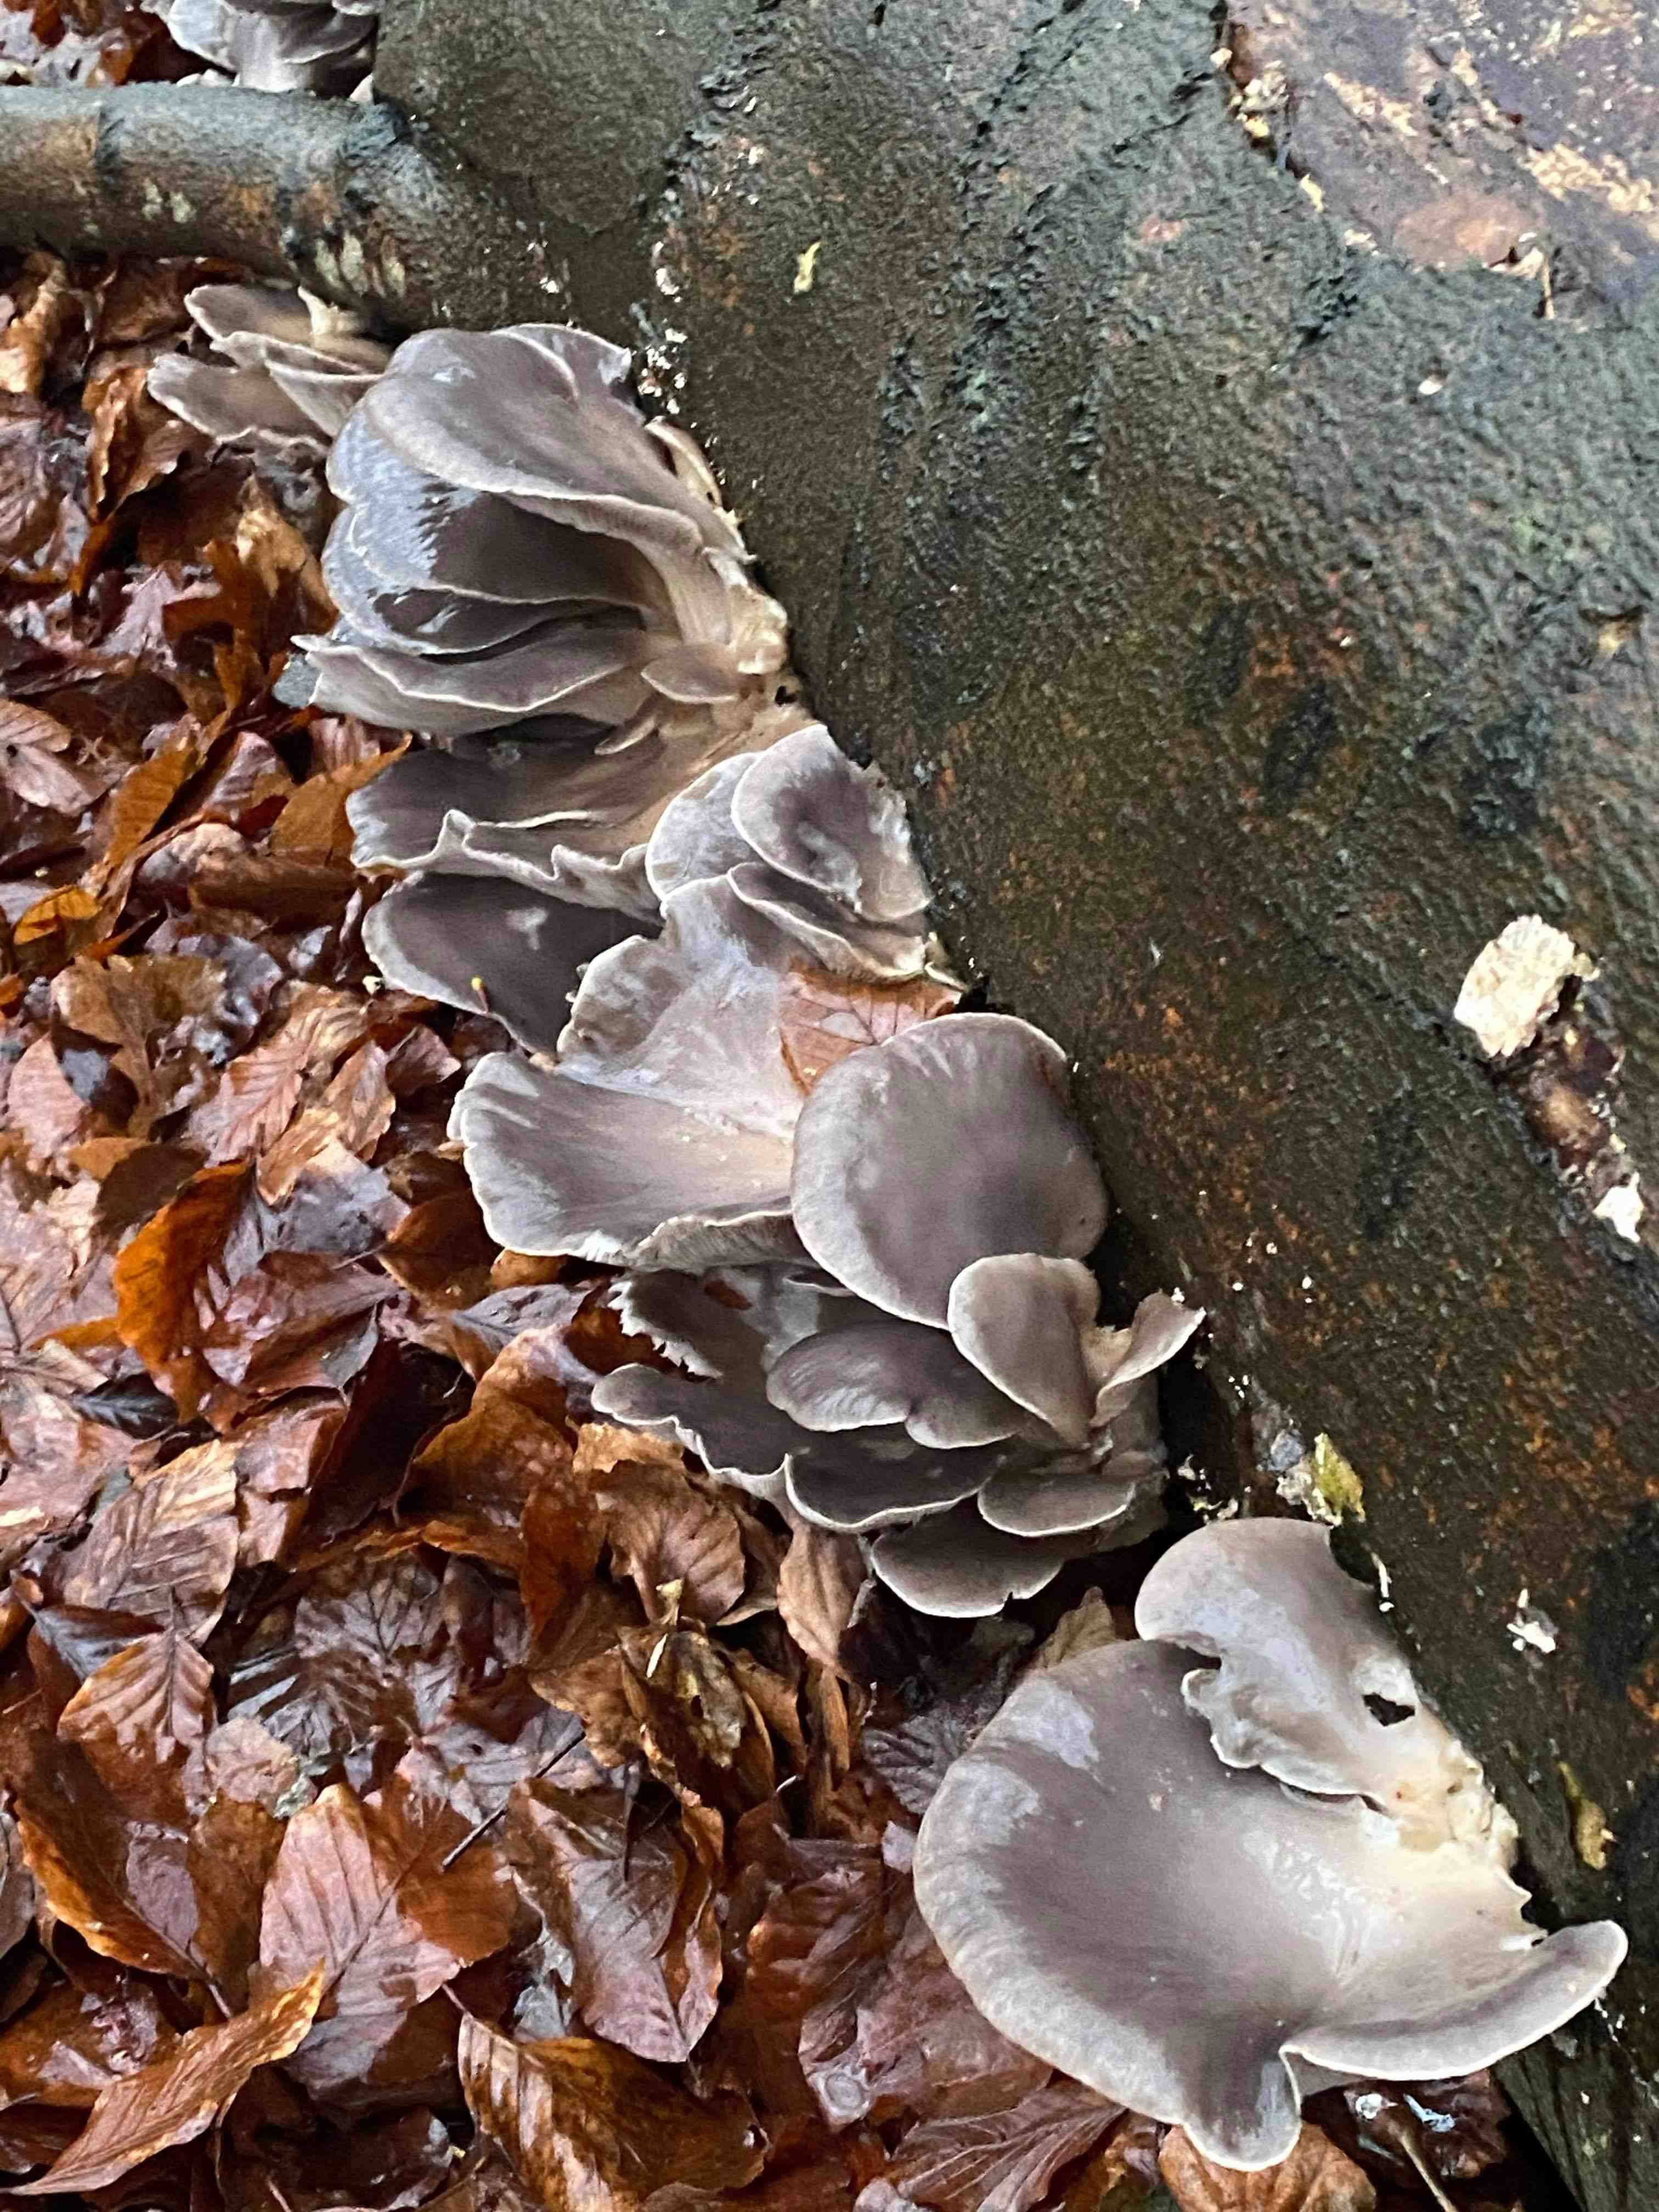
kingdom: Fungi
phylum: Basidiomycota
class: Agaricomycetes
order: Agaricales
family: Pleurotaceae
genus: Pleurotus
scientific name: Pleurotus ostreatus
